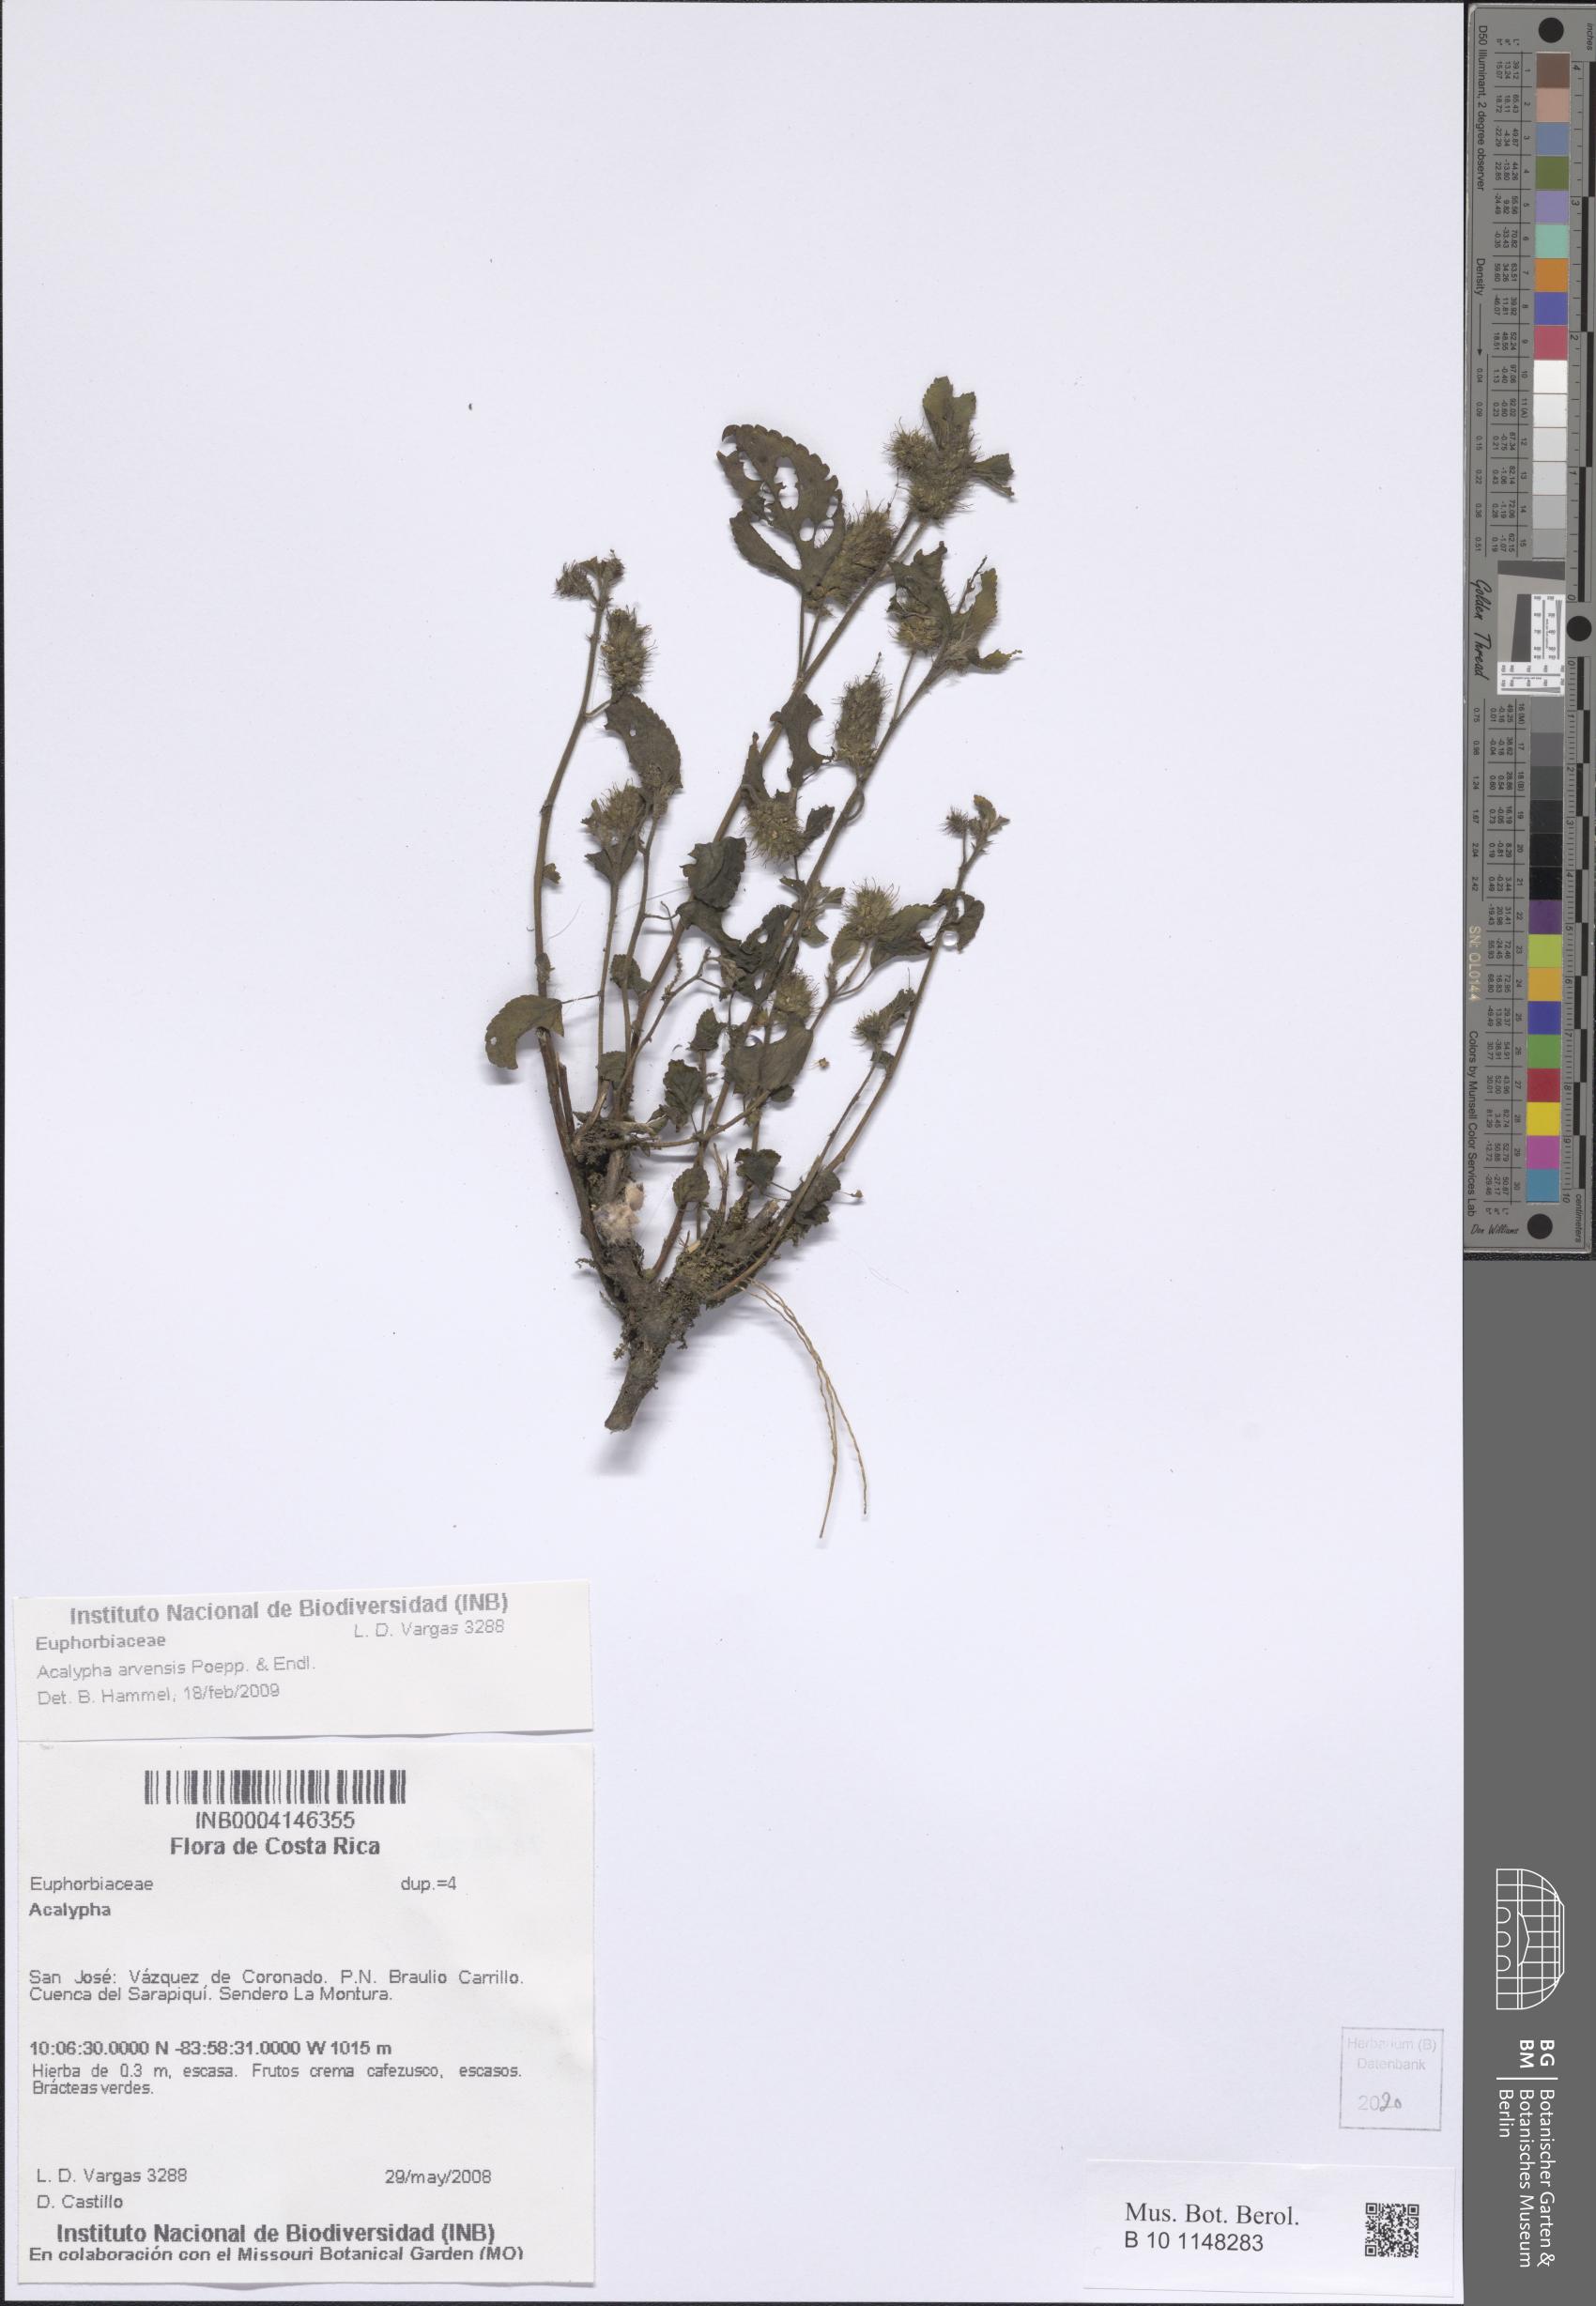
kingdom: Plantae
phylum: Tracheophyta
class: Magnoliopsida
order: Malpighiales
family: Euphorbiaceae
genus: Acalypha
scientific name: Acalypha arvensis
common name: Field copperleaf
